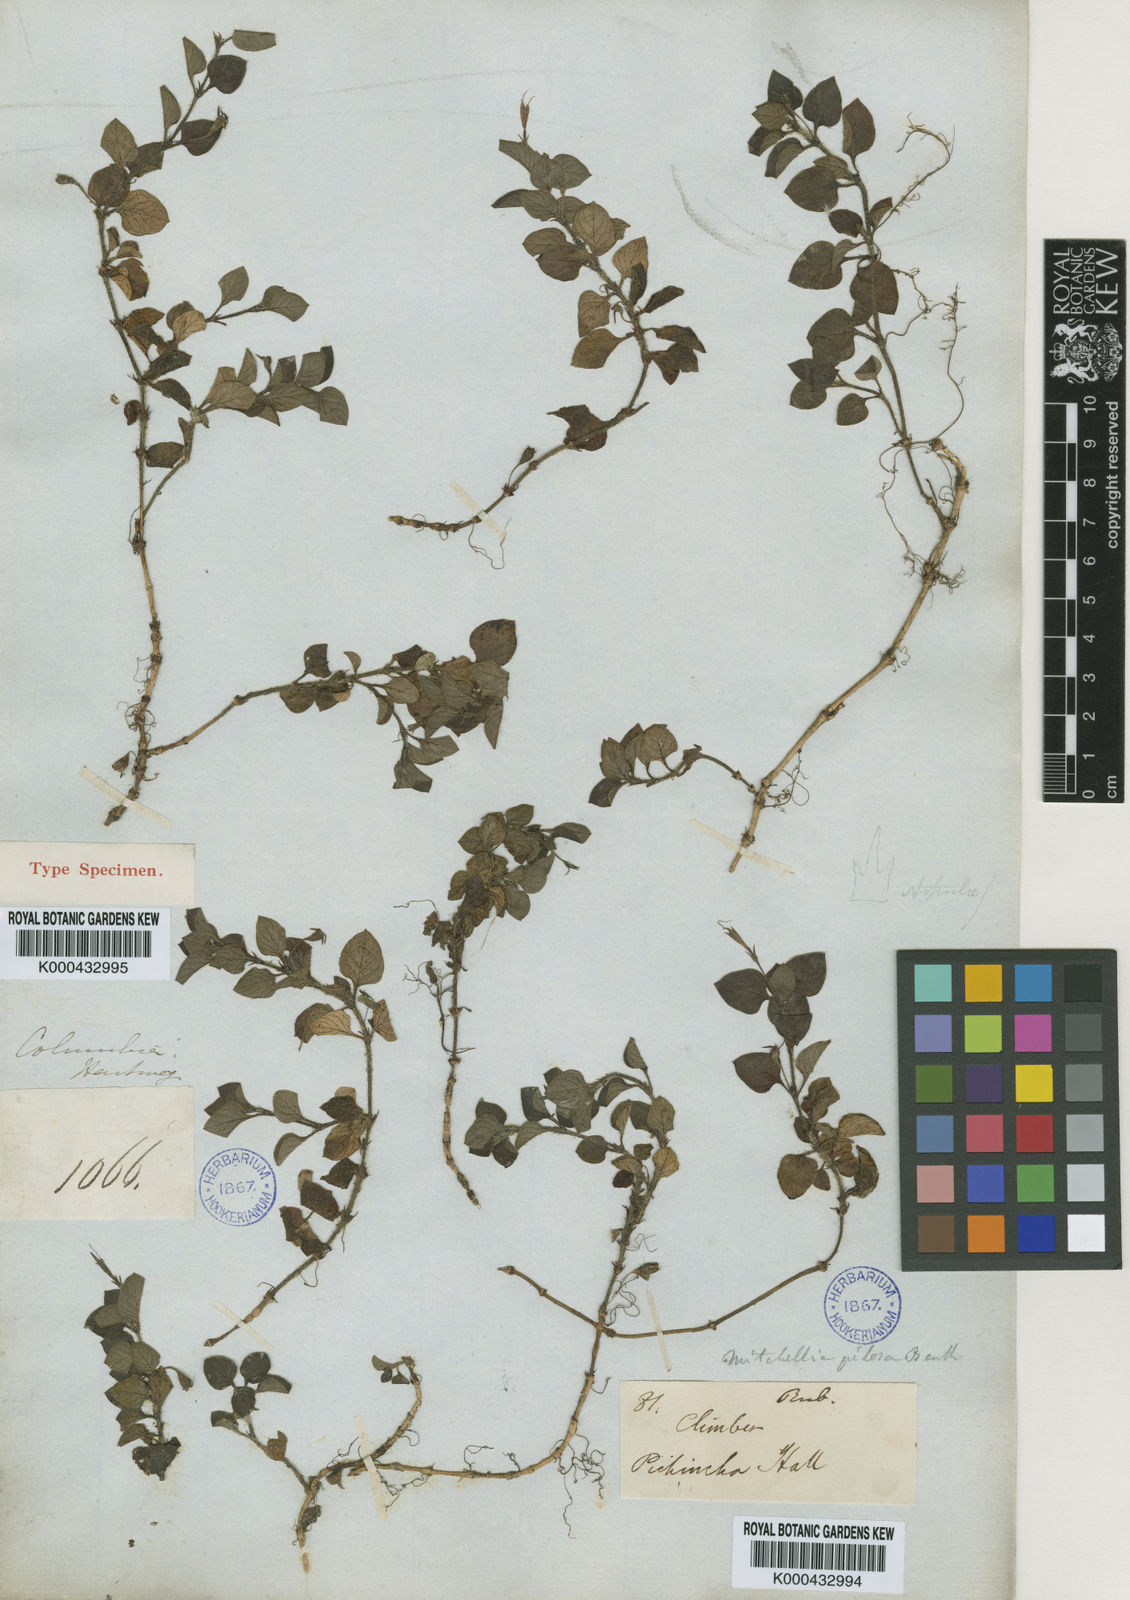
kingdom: Plantae
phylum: Tracheophyta
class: Magnoliopsida
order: Gentianales
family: Rubiaceae
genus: Leptostigma
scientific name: Leptostigma pilosum
